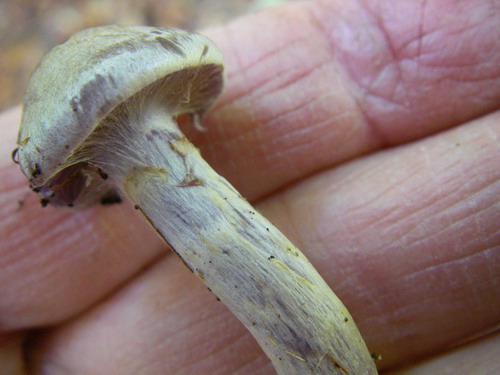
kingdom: Fungi
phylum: Basidiomycota
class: Agaricomycetes
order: Agaricales
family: Cortinariaceae
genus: Cortinarius
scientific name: Cortinarius delibutus
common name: gul slørhat
